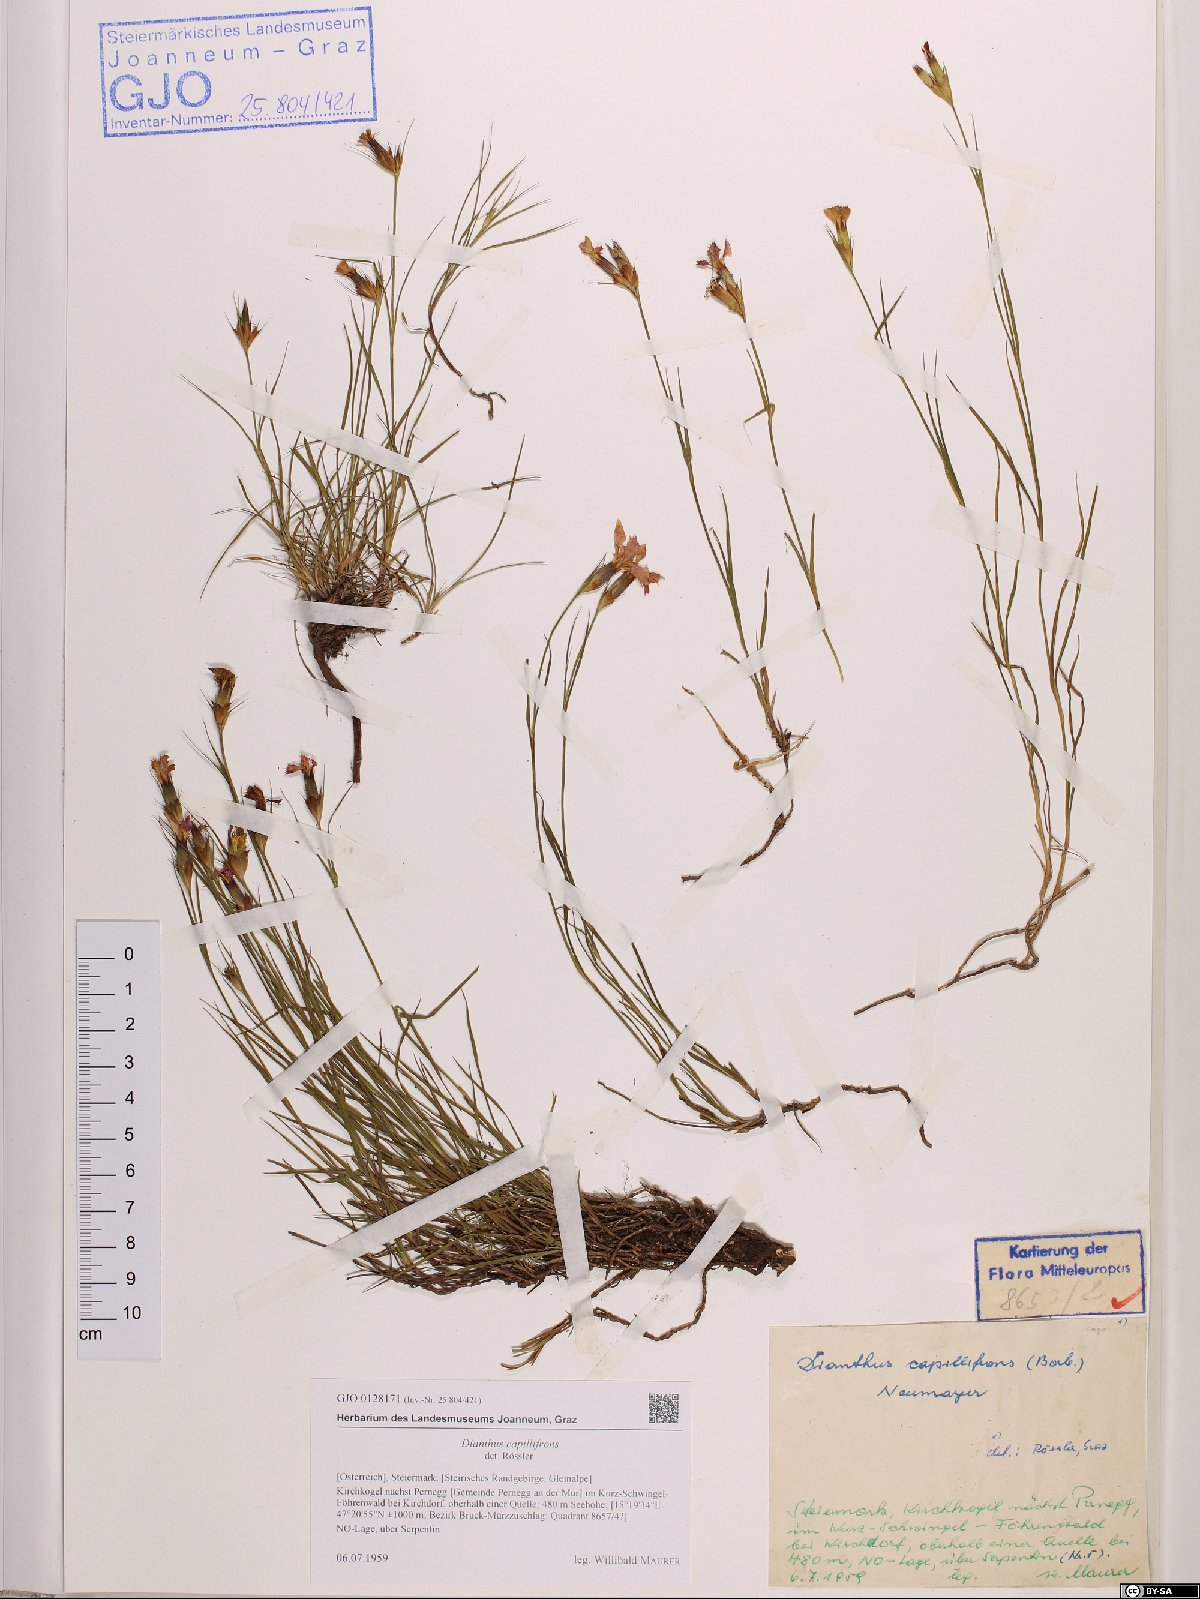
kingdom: Plantae
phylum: Tracheophyta
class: Magnoliopsida
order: Caryophyllales
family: Caryophyllaceae
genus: Dianthus
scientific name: Dianthus carthusianorum
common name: Carthusian pink
